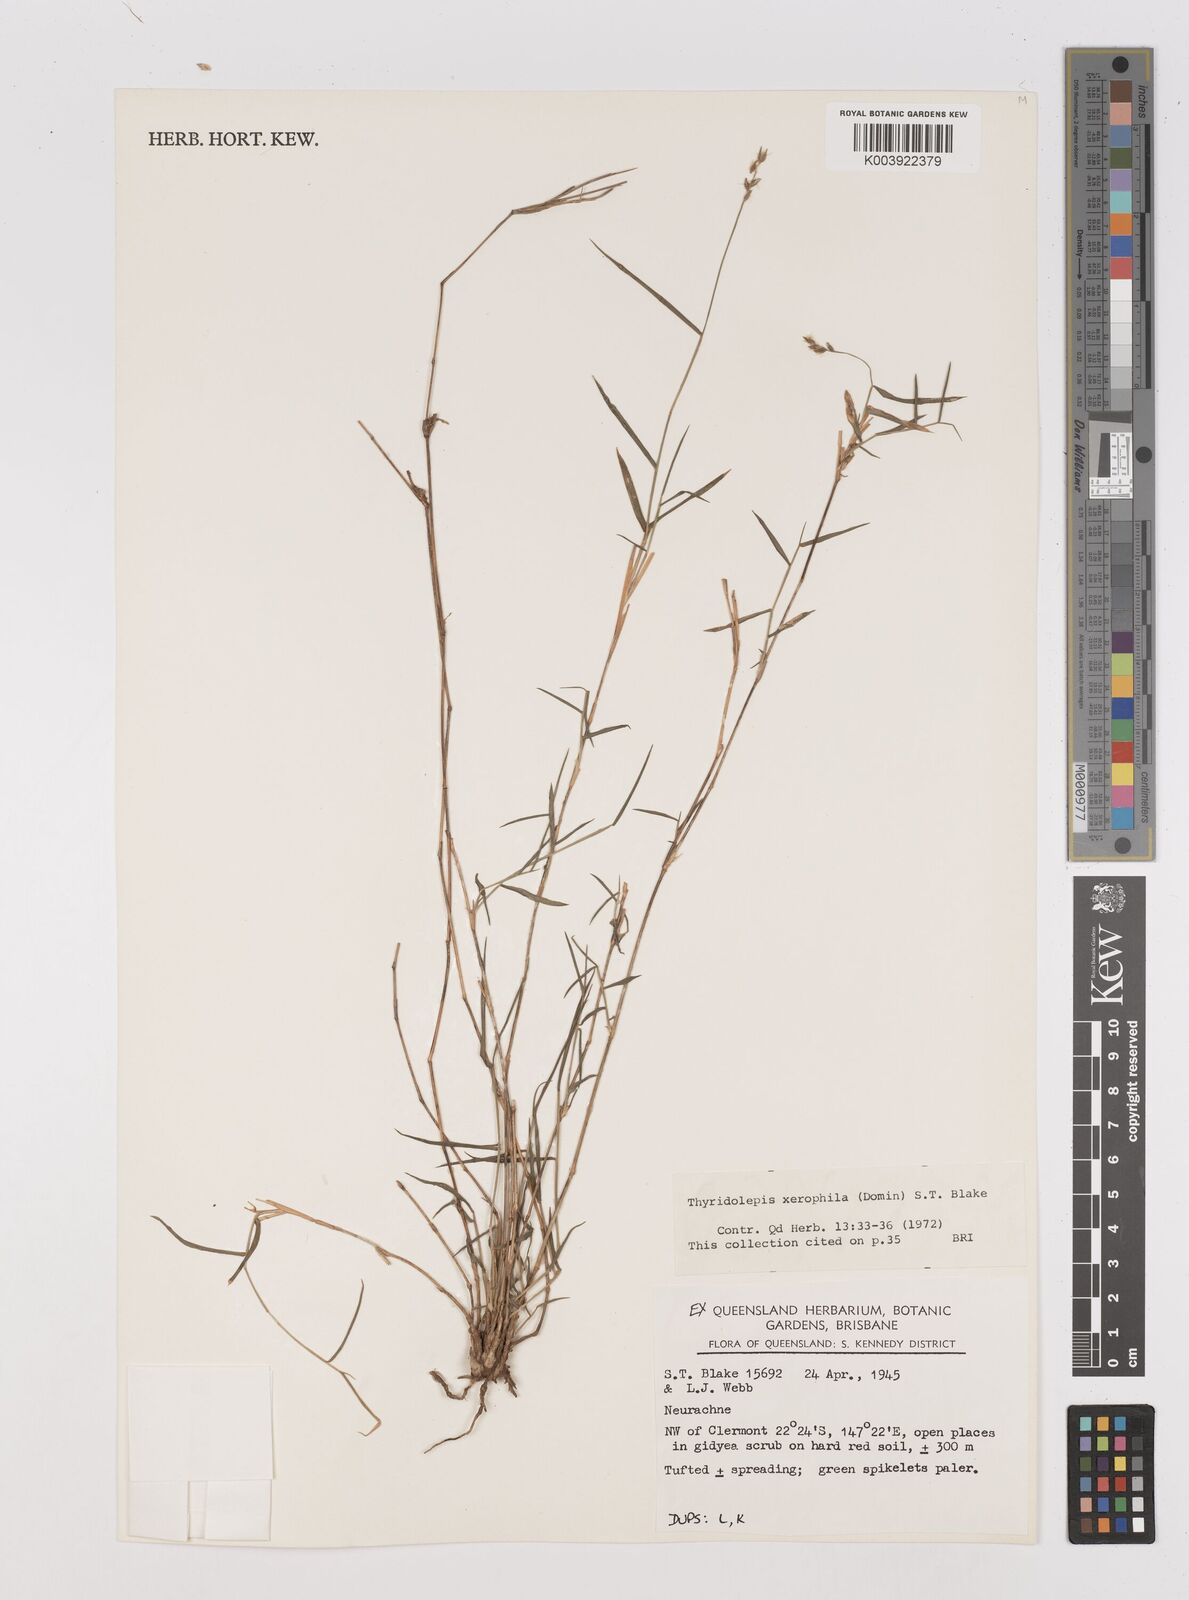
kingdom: Plantae
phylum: Tracheophyta
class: Liliopsida
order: Poales
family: Poaceae
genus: Thyridolepis
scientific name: Thyridolepis xerophila
